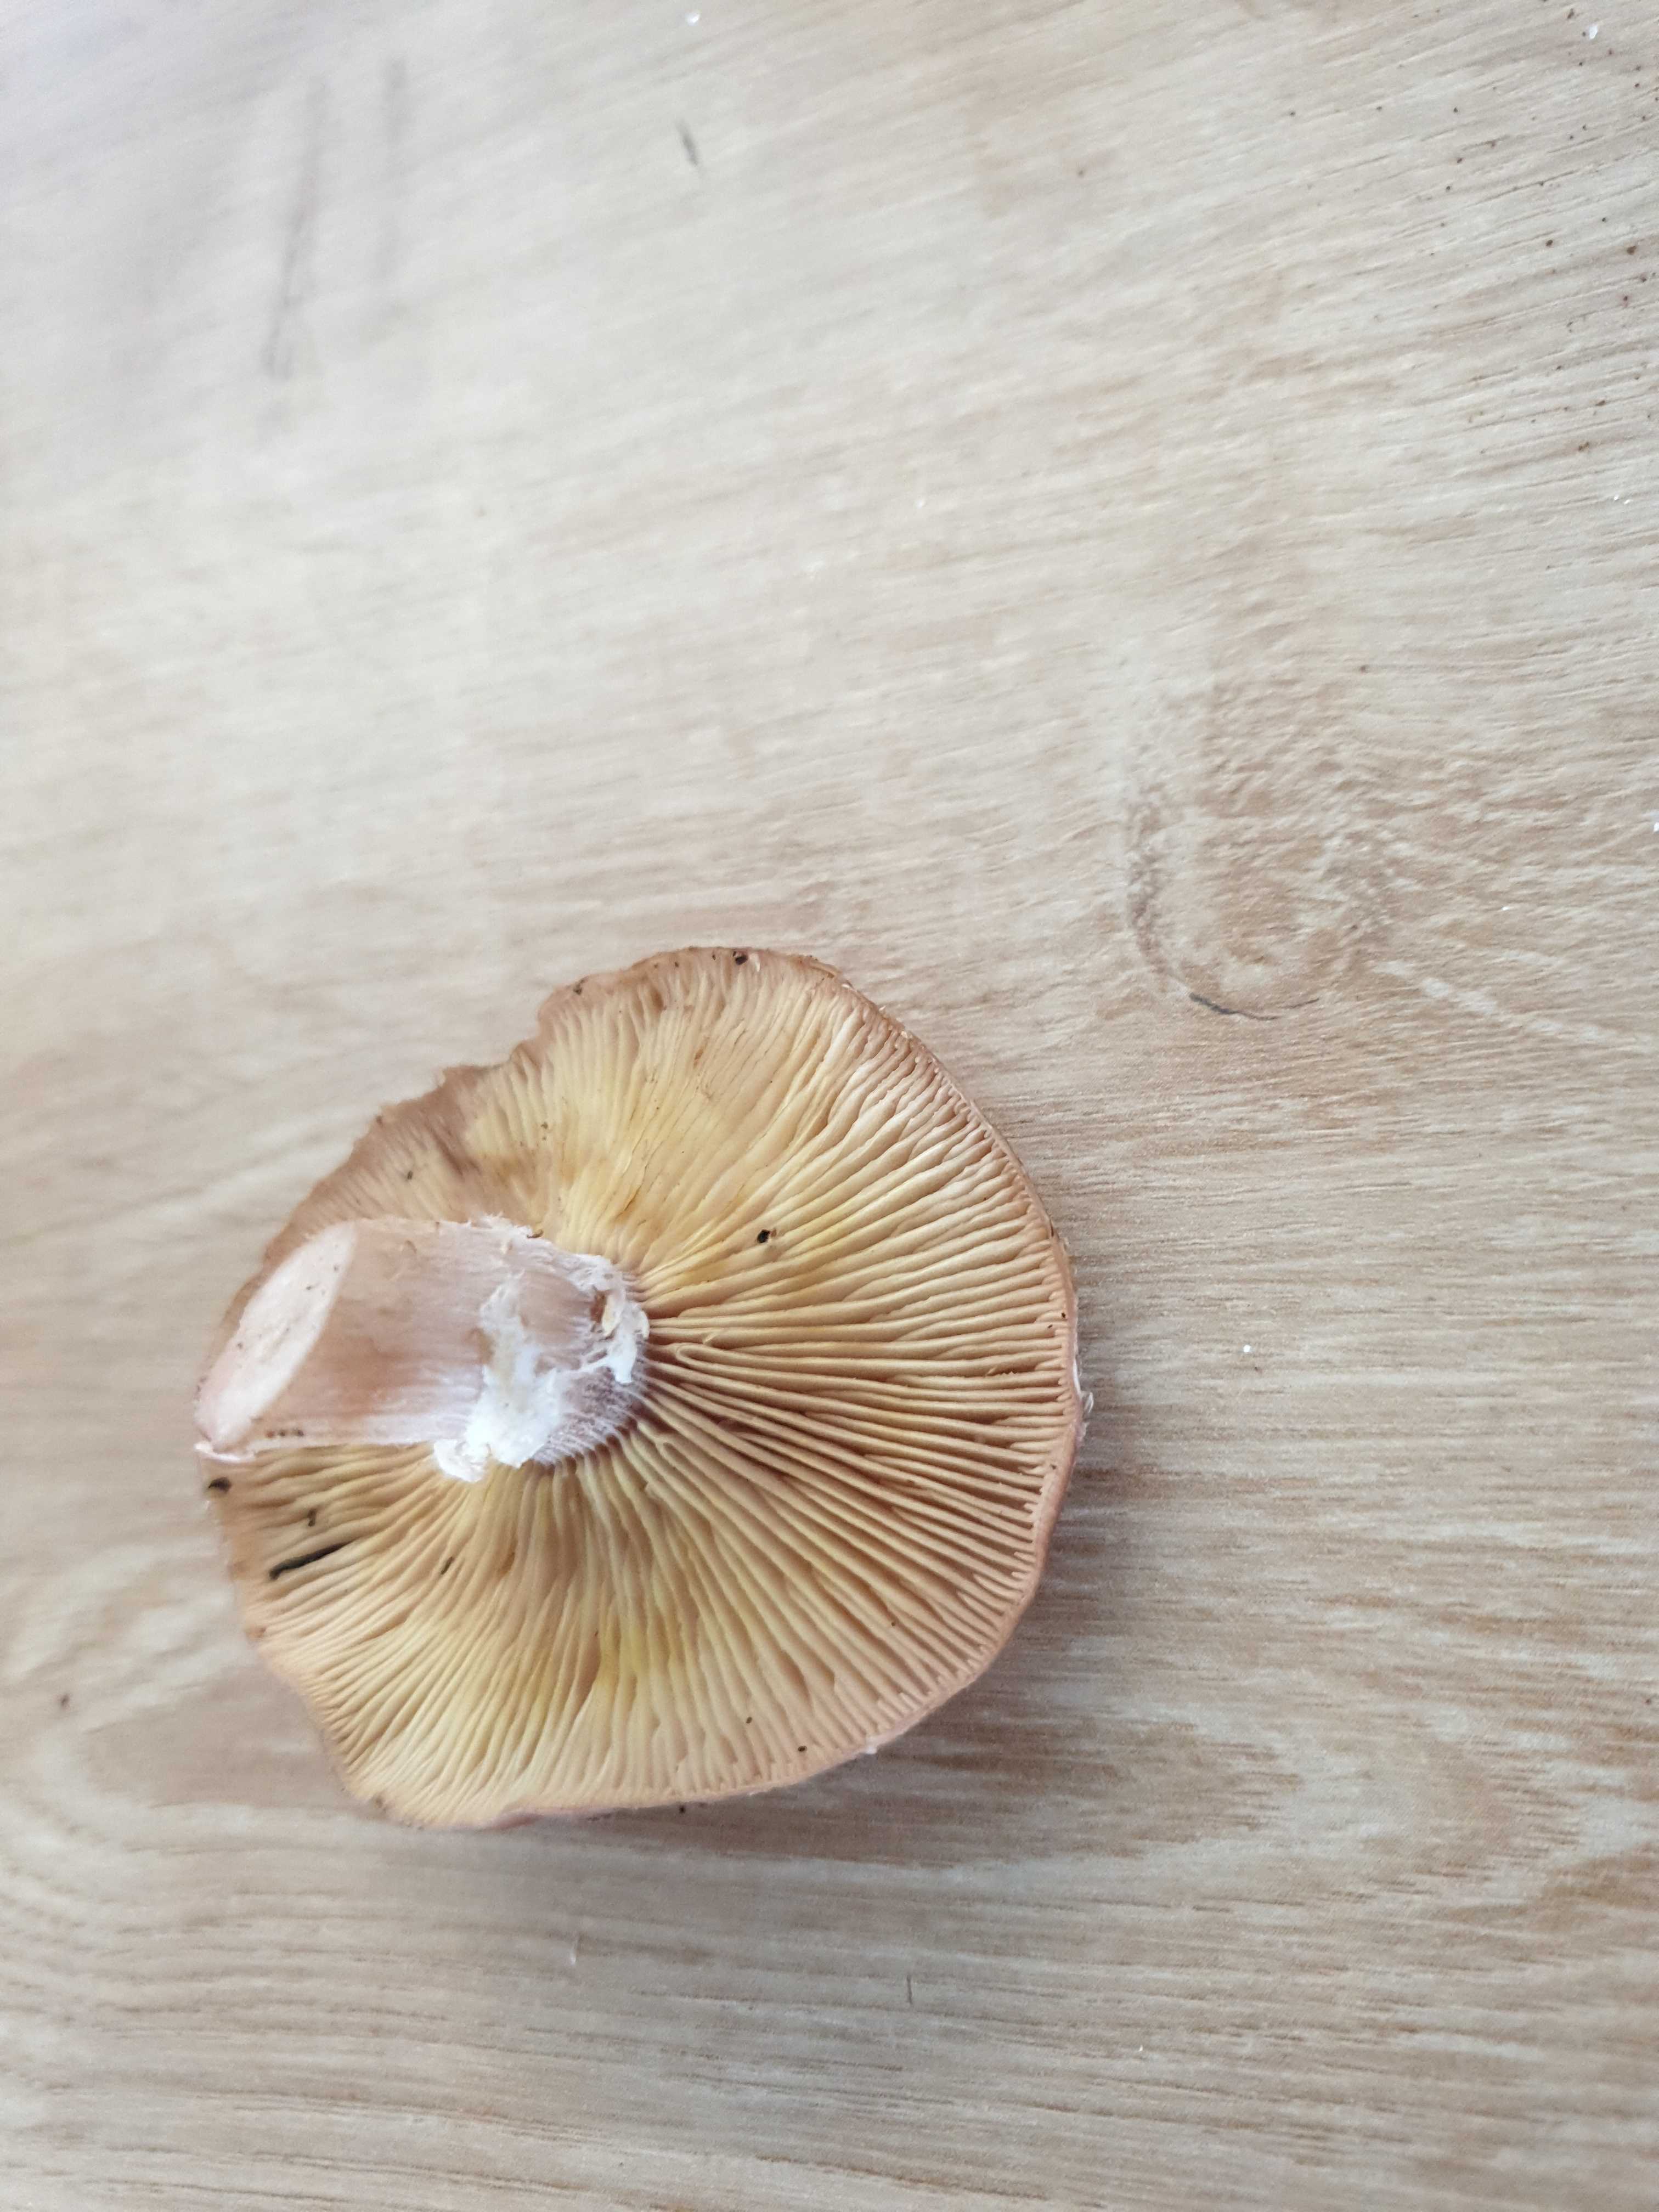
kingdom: Fungi
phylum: Basidiomycota
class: Agaricomycetes
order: Agaricales
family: Physalacriaceae
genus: Armillaria
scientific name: Armillaria lutea
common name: køllestokket honningsvamp
